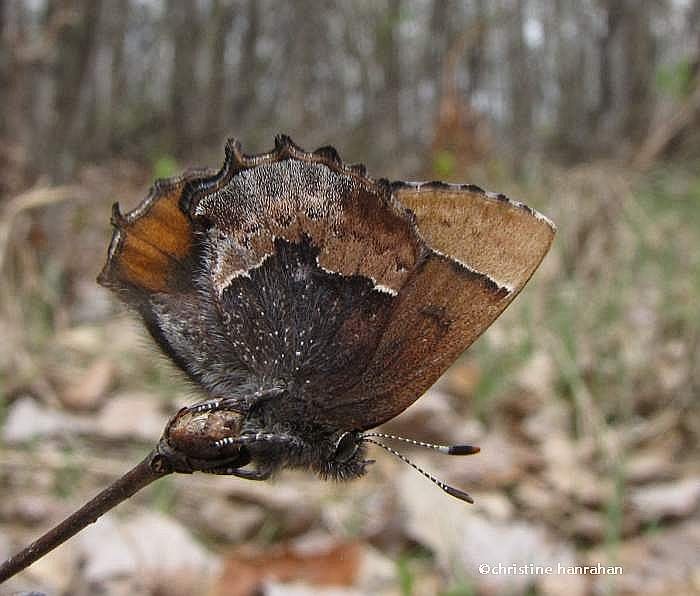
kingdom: Animalia
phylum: Arthropoda
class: Insecta
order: Lepidoptera
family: Lycaenidae
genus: Incisalia
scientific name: Incisalia henrici
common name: Henry's Elfin
